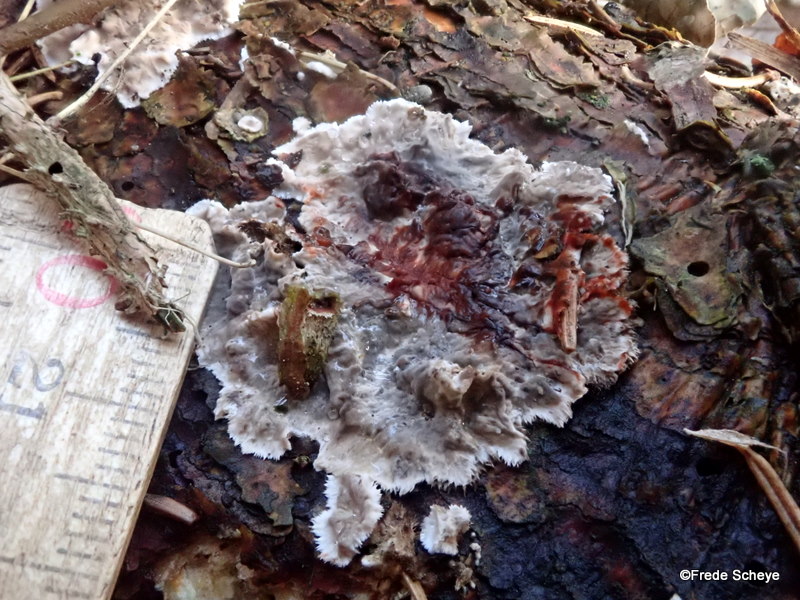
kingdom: Fungi
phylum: Basidiomycota
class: Agaricomycetes
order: Russulales
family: Stereaceae
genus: Stereum
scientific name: Stereum sanguinolentum
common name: blødende lædersvamp
